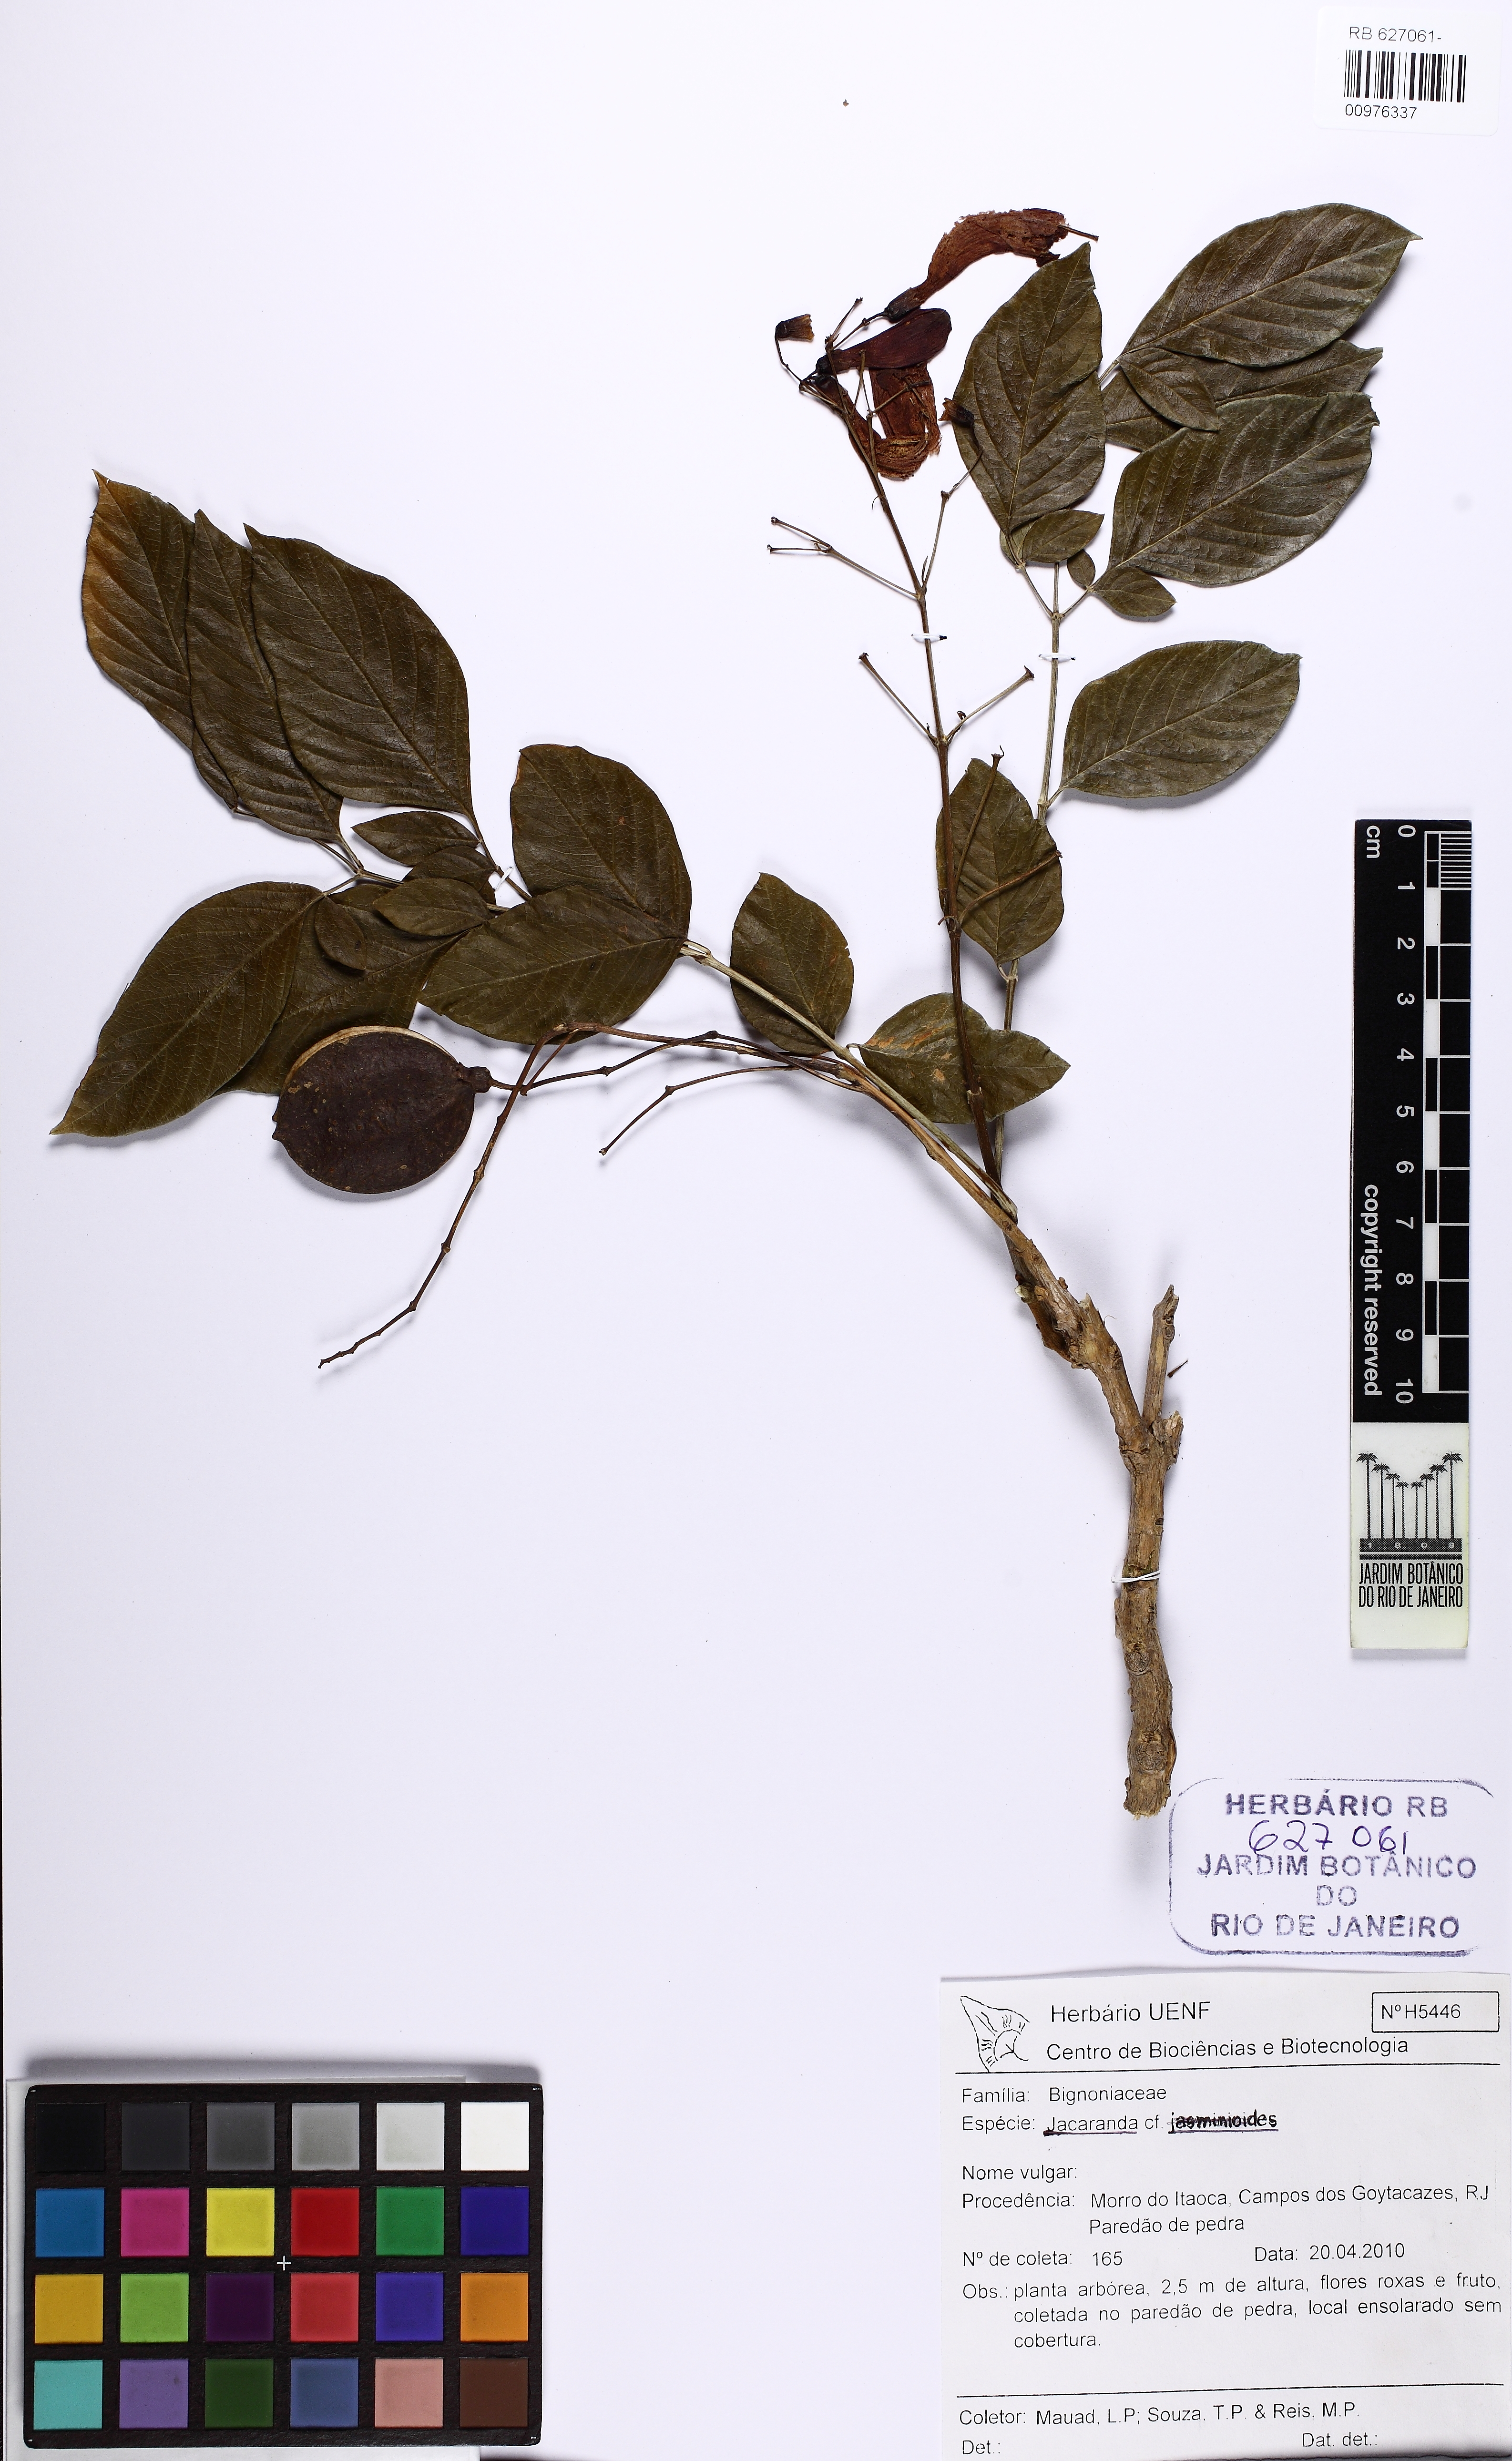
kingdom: Plantae
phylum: Tracheophyta
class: Magnoliopsida
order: Lamiales
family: Bignoniaceae
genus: Jacaranda
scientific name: Jacaranda
